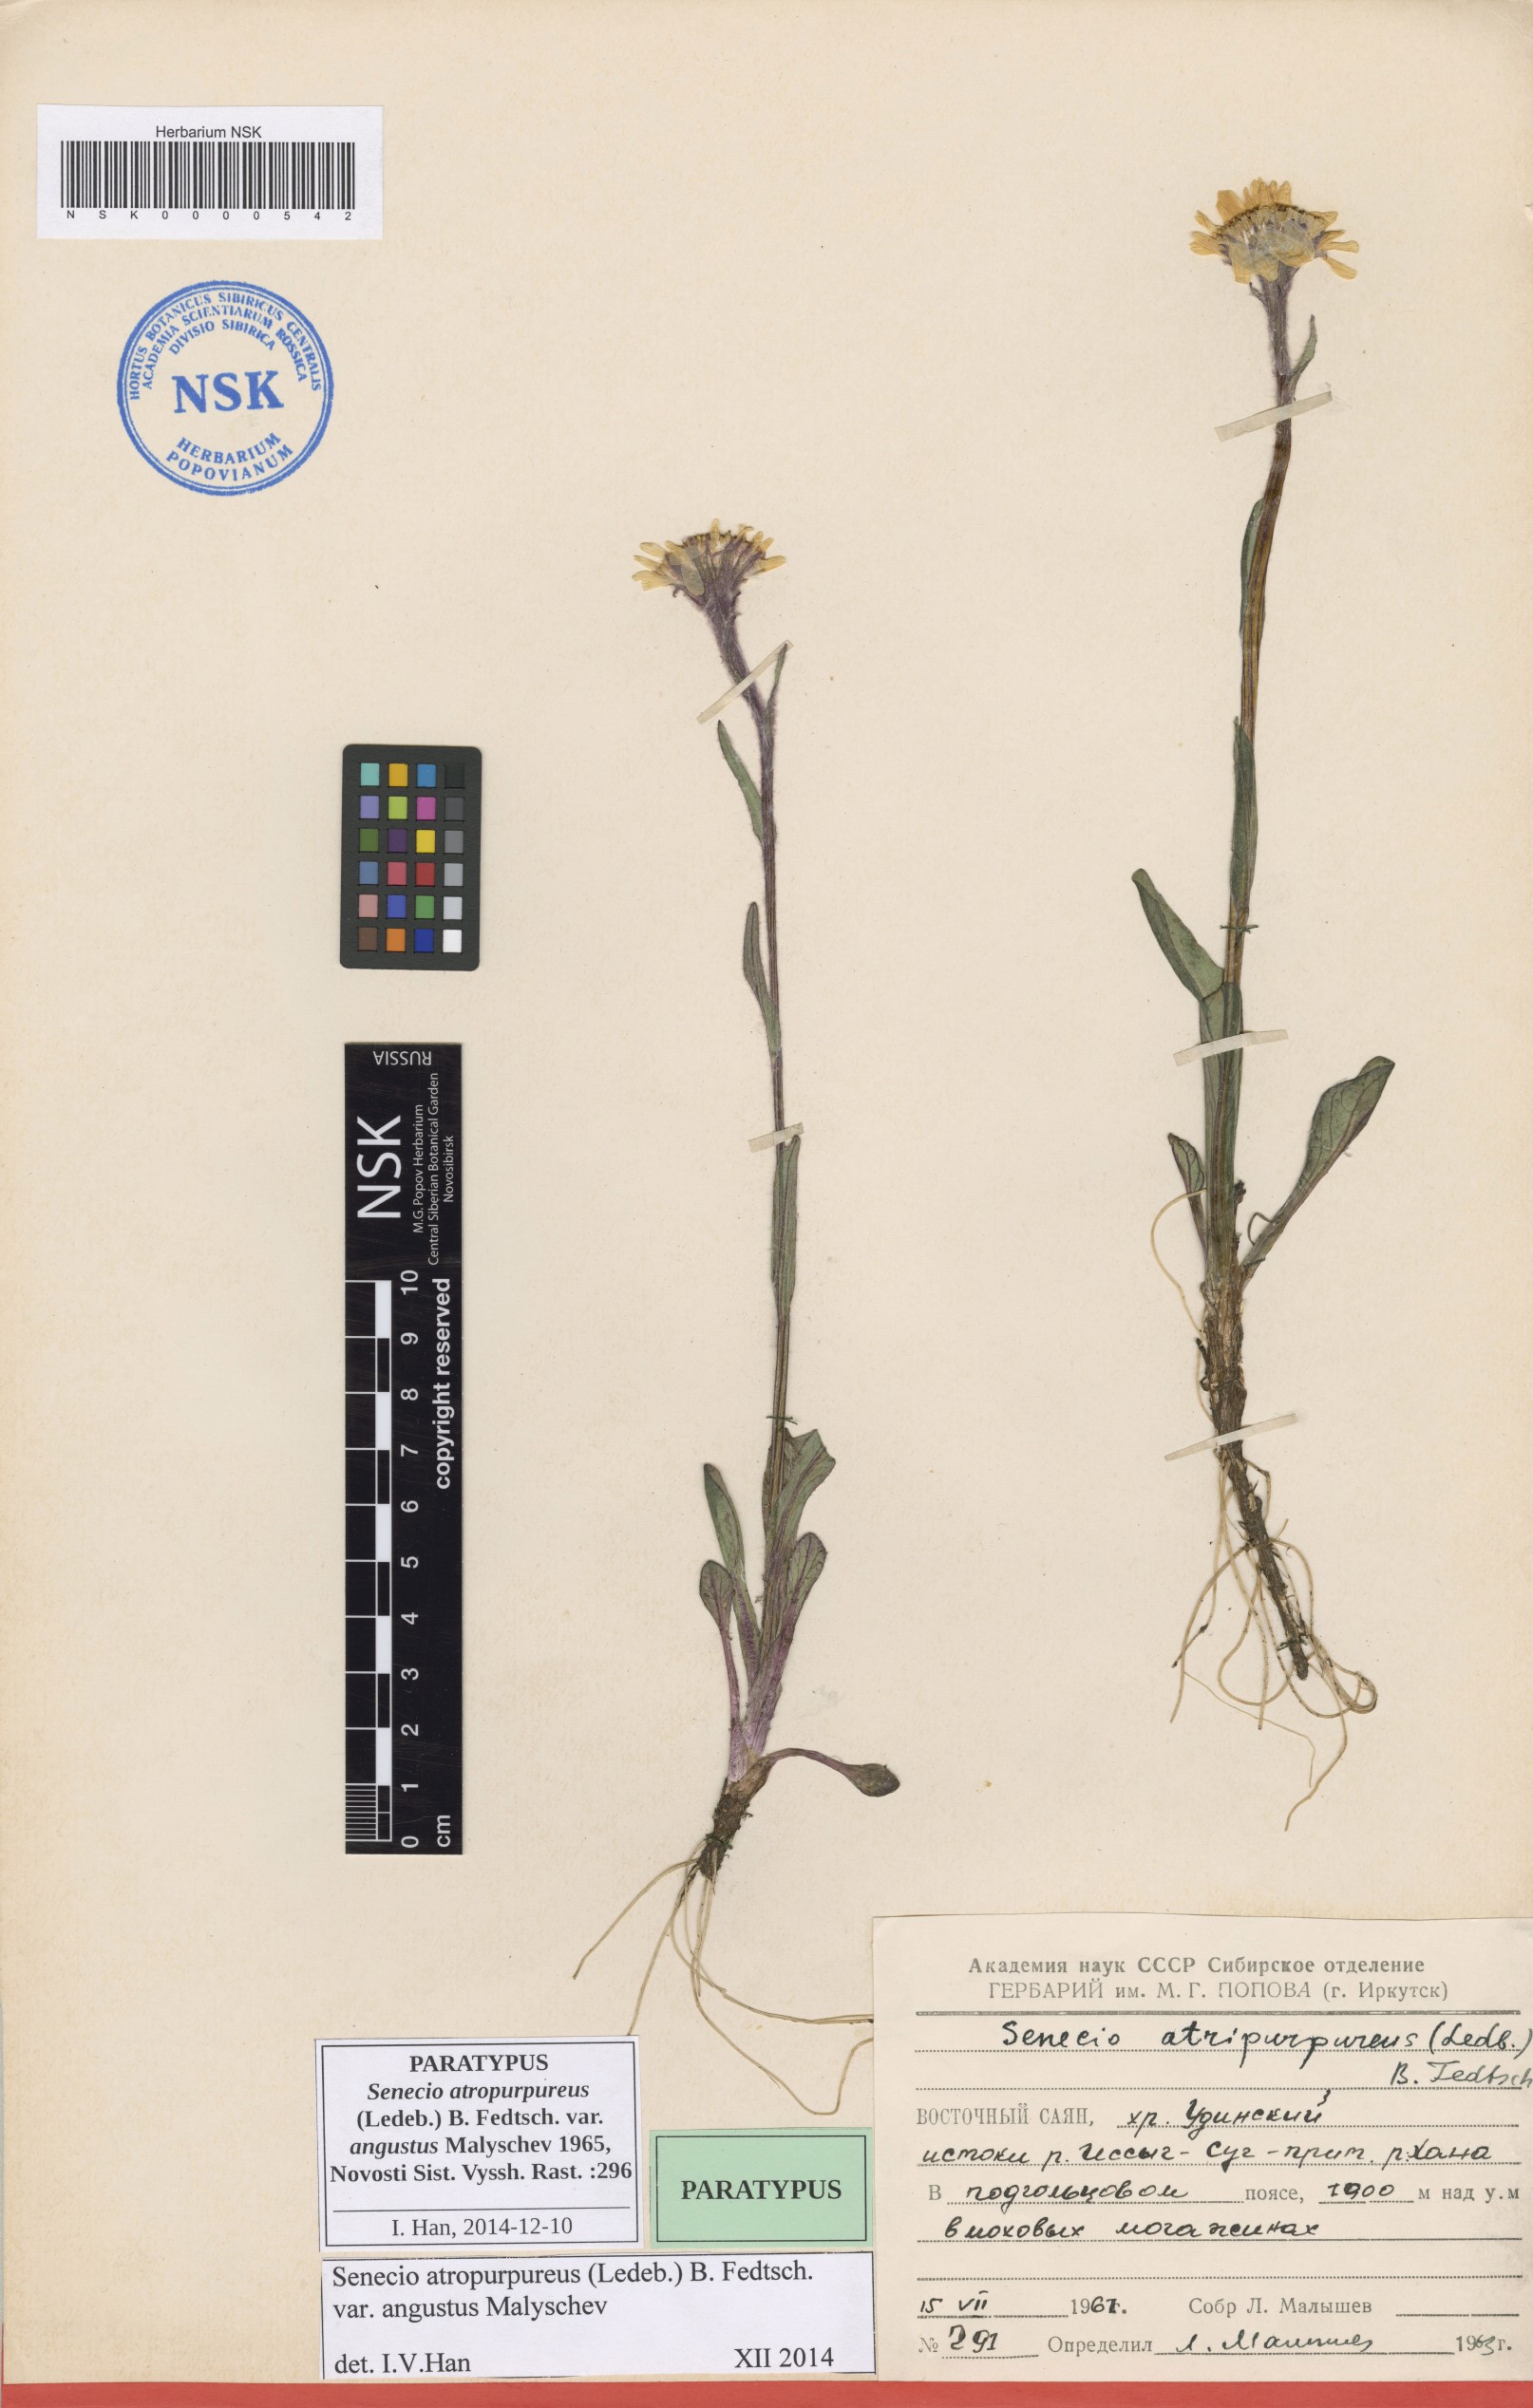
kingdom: Plantae
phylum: Tracheophyta
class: Magnoliopsida
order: Asterales
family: Asteraceae
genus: Tephroseris
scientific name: Tephroseris integrifolia
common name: Field fleawort
